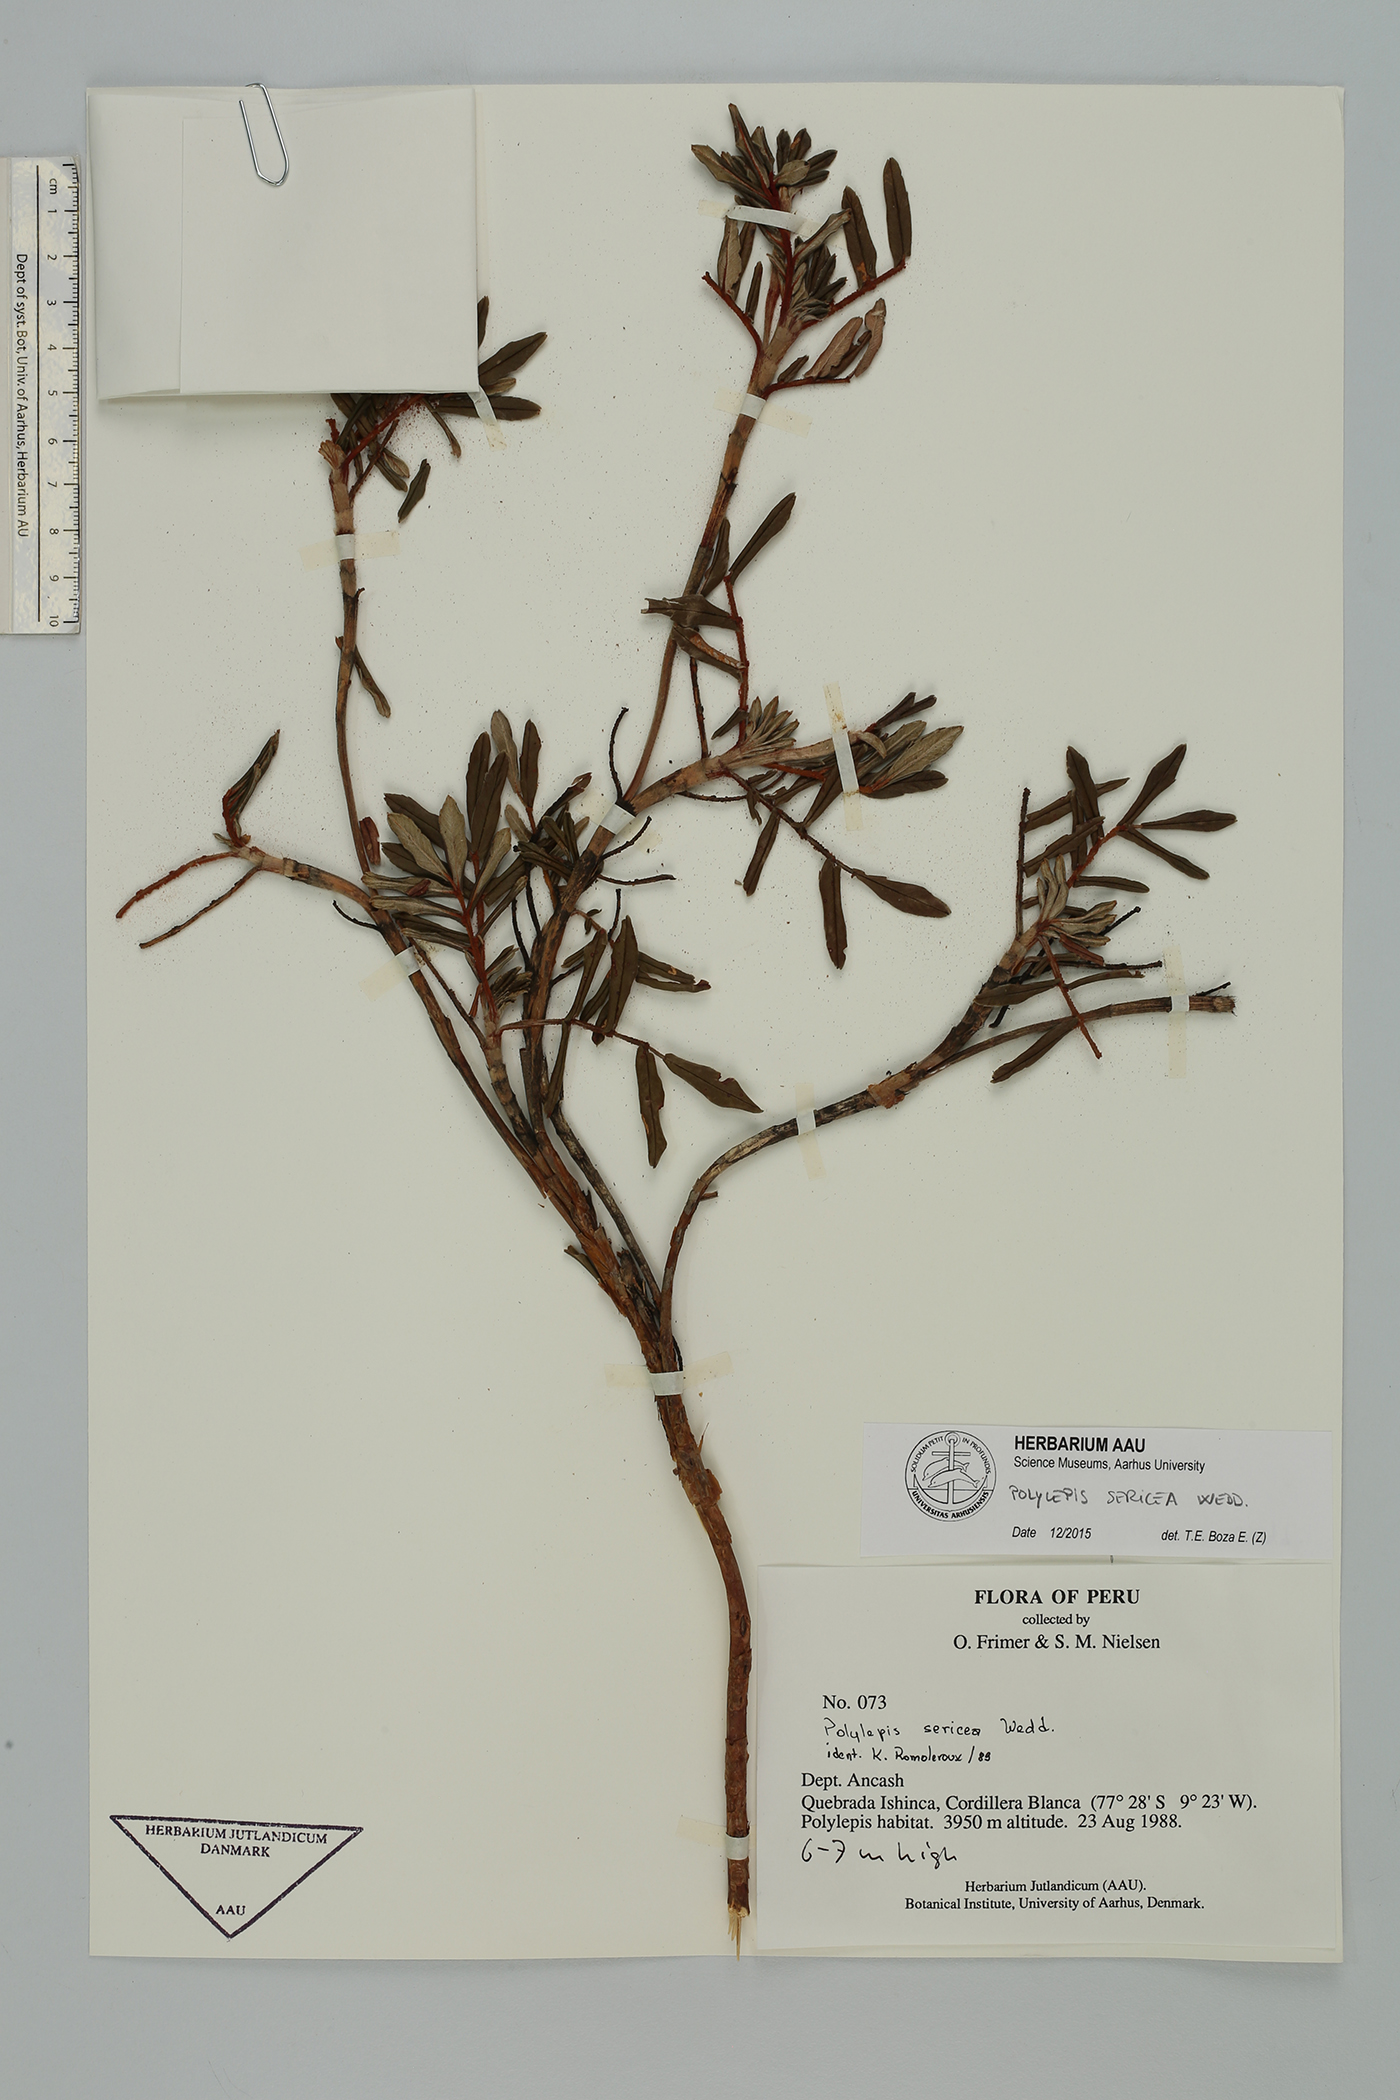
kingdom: Plantae
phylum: Tracheophyta
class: Magnoliopsida
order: Rosales
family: Rosaceae
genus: Polylepis
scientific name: Polylepis sericea
